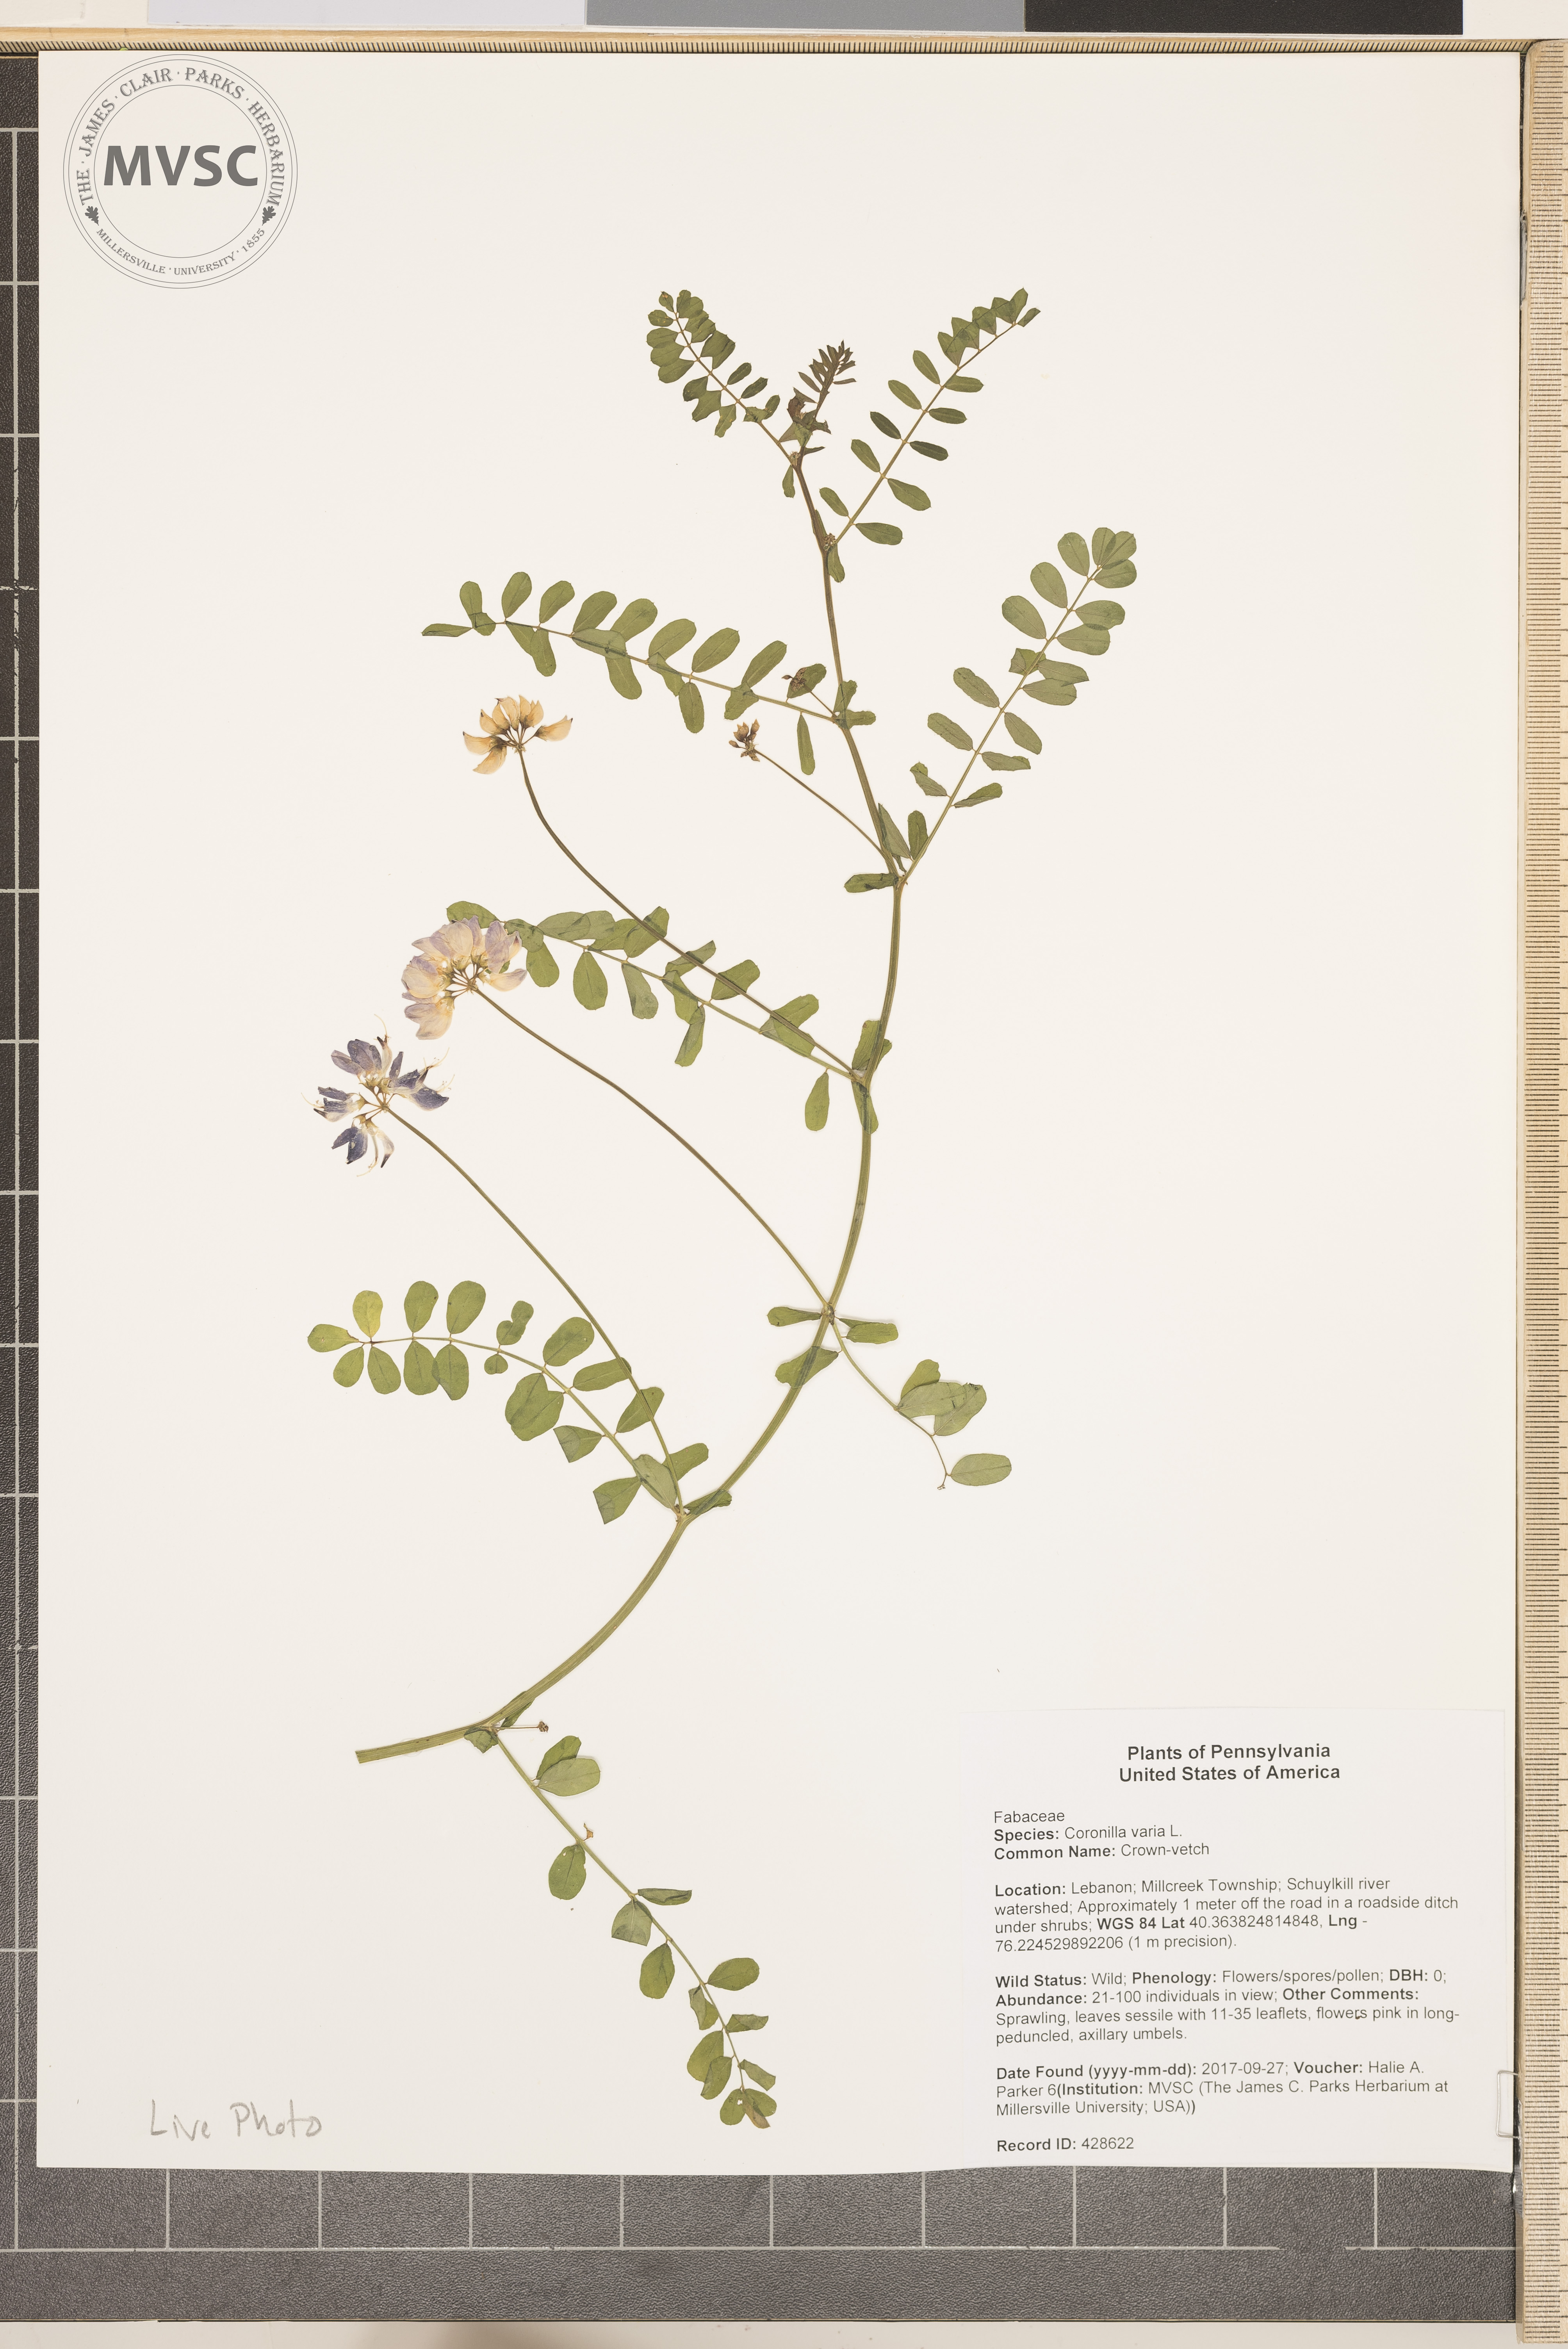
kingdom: Plantae
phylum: Tracheophyta
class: Magnoliopsida
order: Fabales
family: Fabaceae
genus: Coronilla
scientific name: Coronilla varia
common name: Crown-vetch
